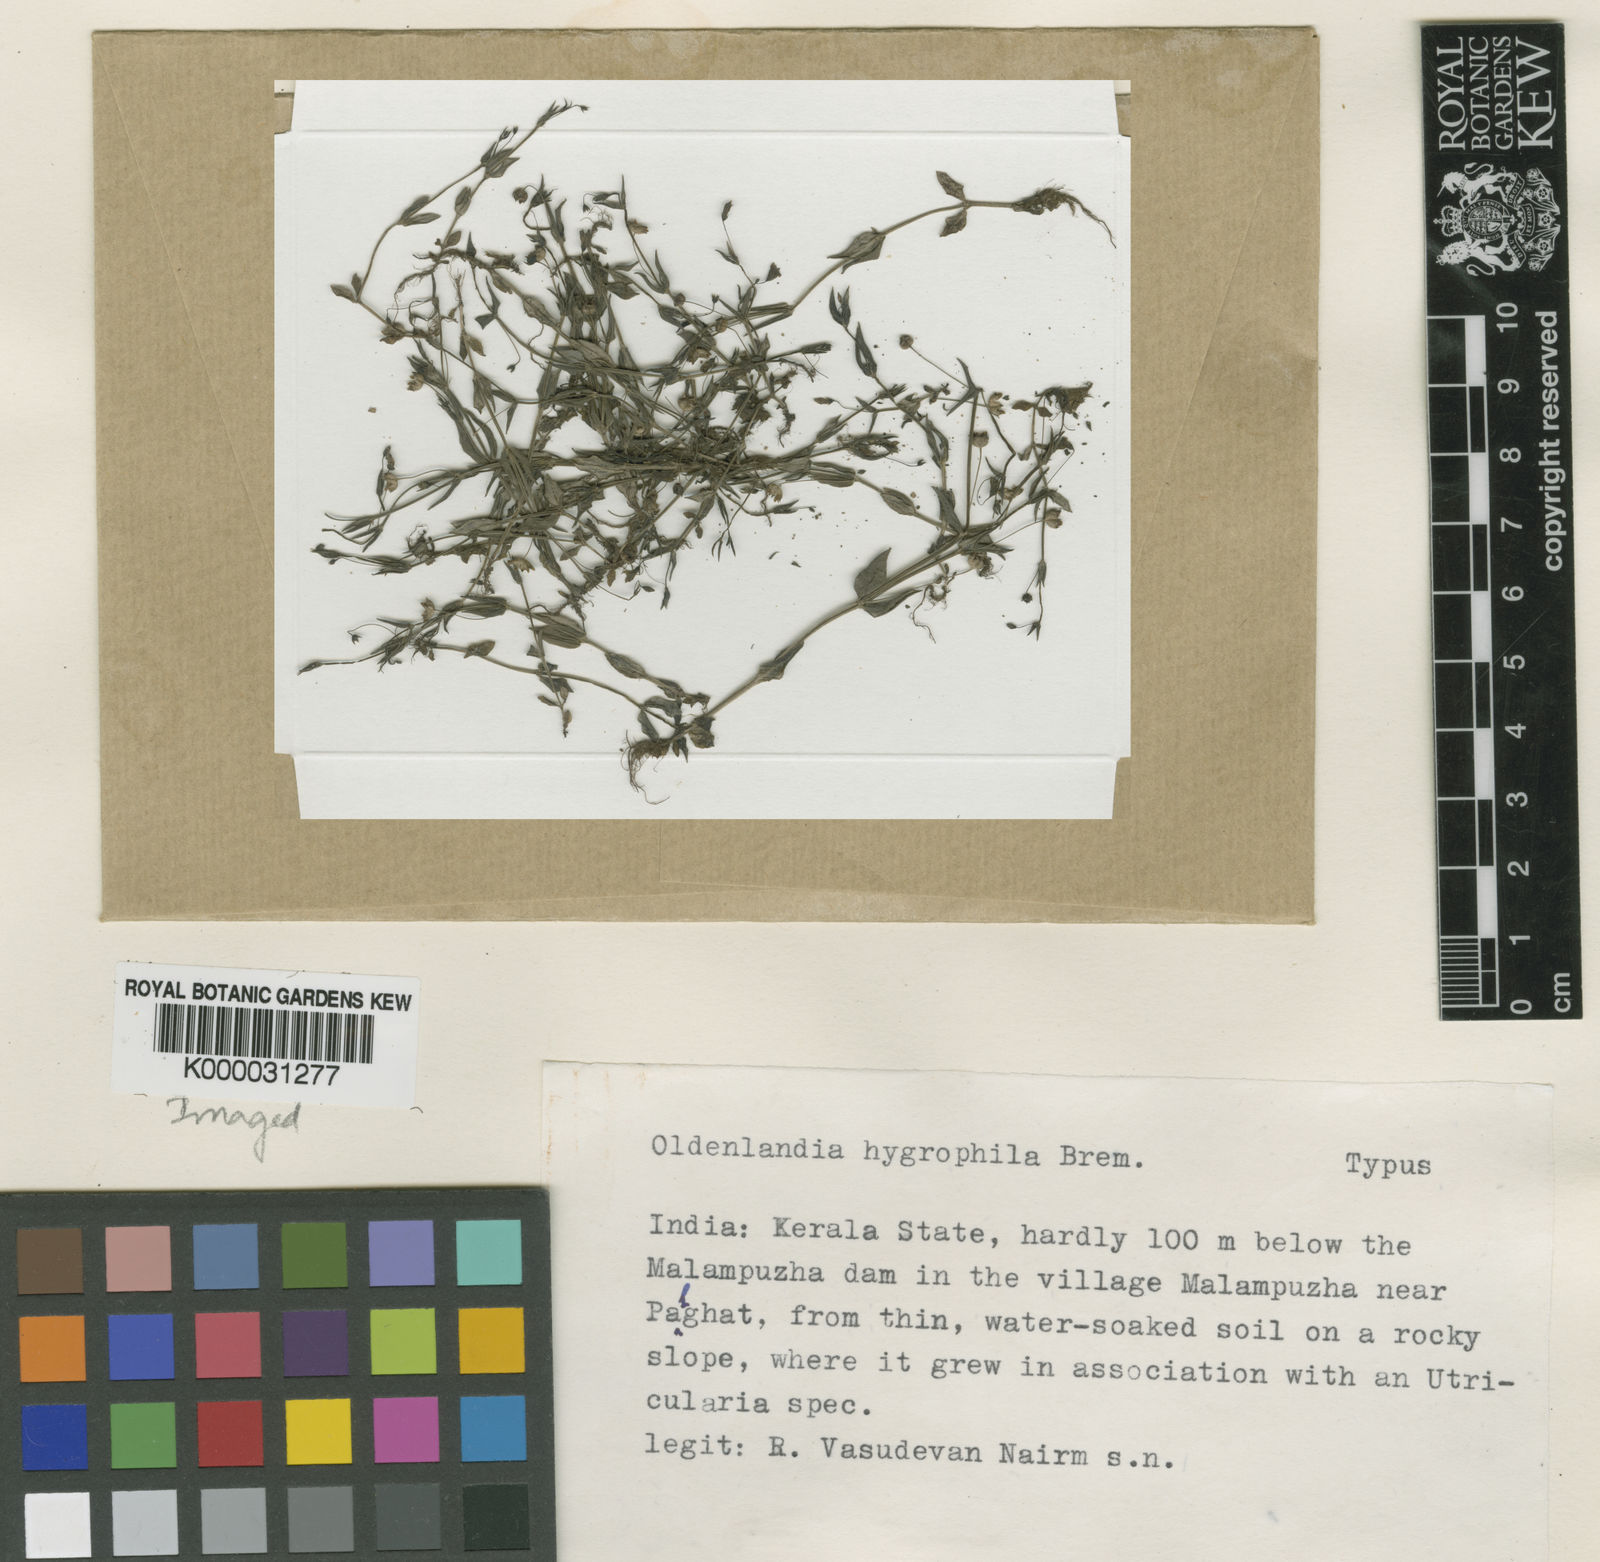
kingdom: Plantae
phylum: Tracheophyta
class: Magnoliopsida
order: Gentianales
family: Rubiaceae
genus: Oldenlandia
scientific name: Oldenlandia hygrophila
